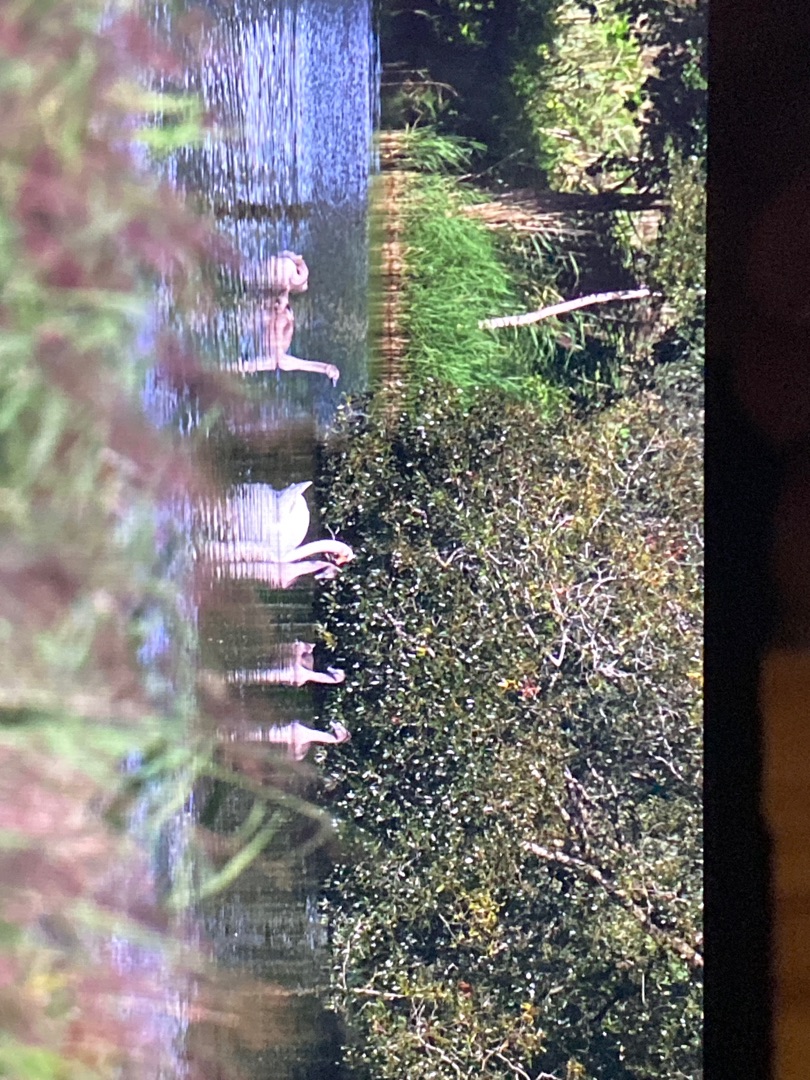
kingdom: Animalia
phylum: Chordata
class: Aves
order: Anseriformes
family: Anatidae
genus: Cygnus
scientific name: Cygnus olor
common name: Knopsvane
